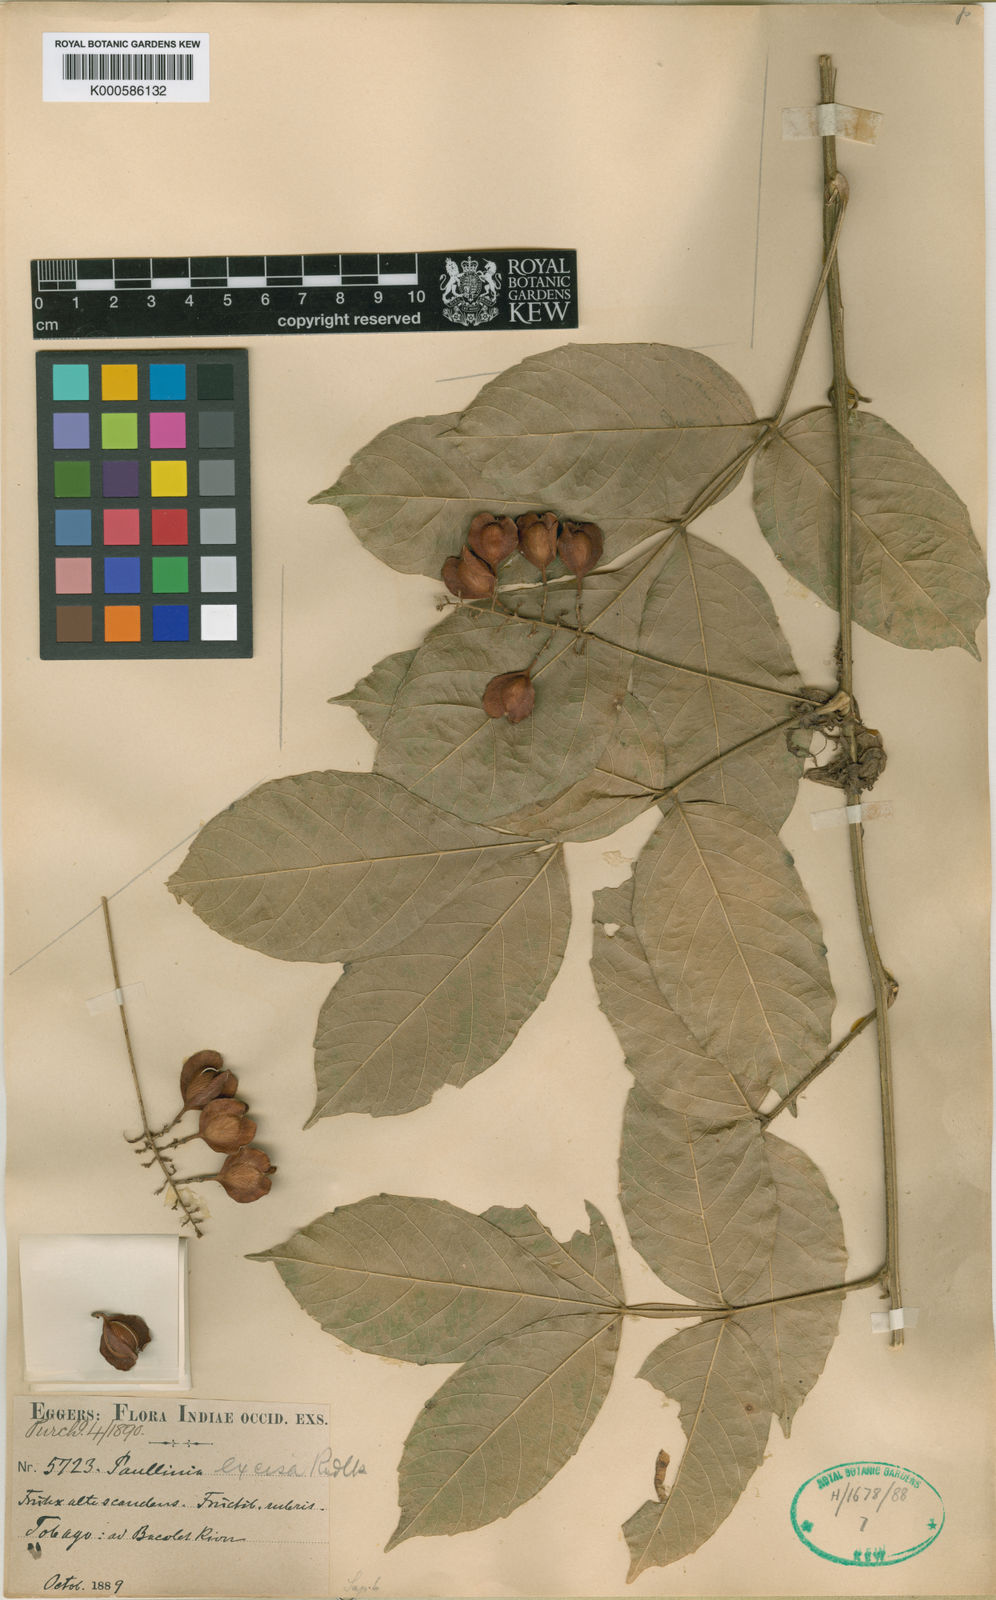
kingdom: Plantae
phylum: Tracheophyta
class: Magnoliopsida
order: Sapindales
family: Sapindaceae
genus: Paullinia
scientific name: Paullinia pterocarpa
